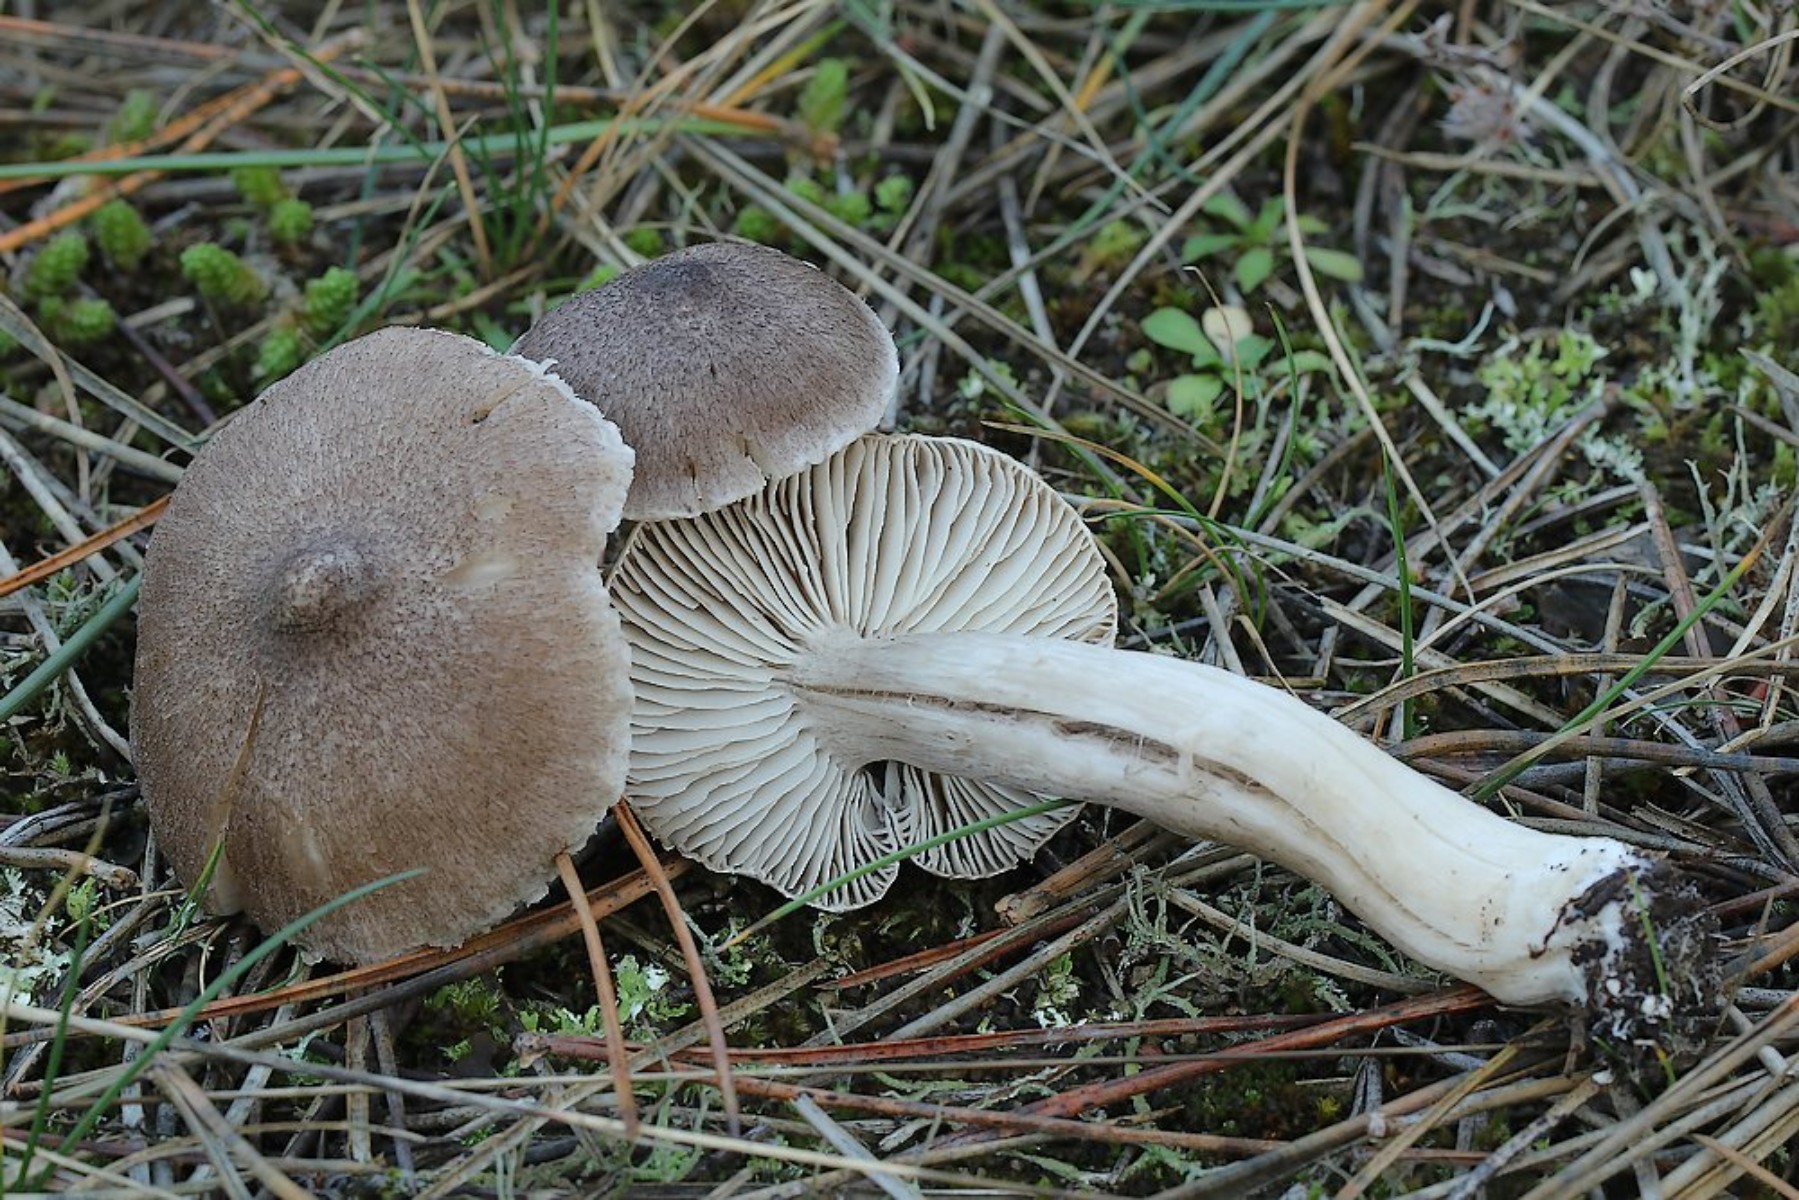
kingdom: Fungi
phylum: Basidiomycota
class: Agaricomycetes
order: Agaricales
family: Tricholomataceae
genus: Tricholoma
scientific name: Tricholoma terreum
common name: jordfarvet ridderhat
